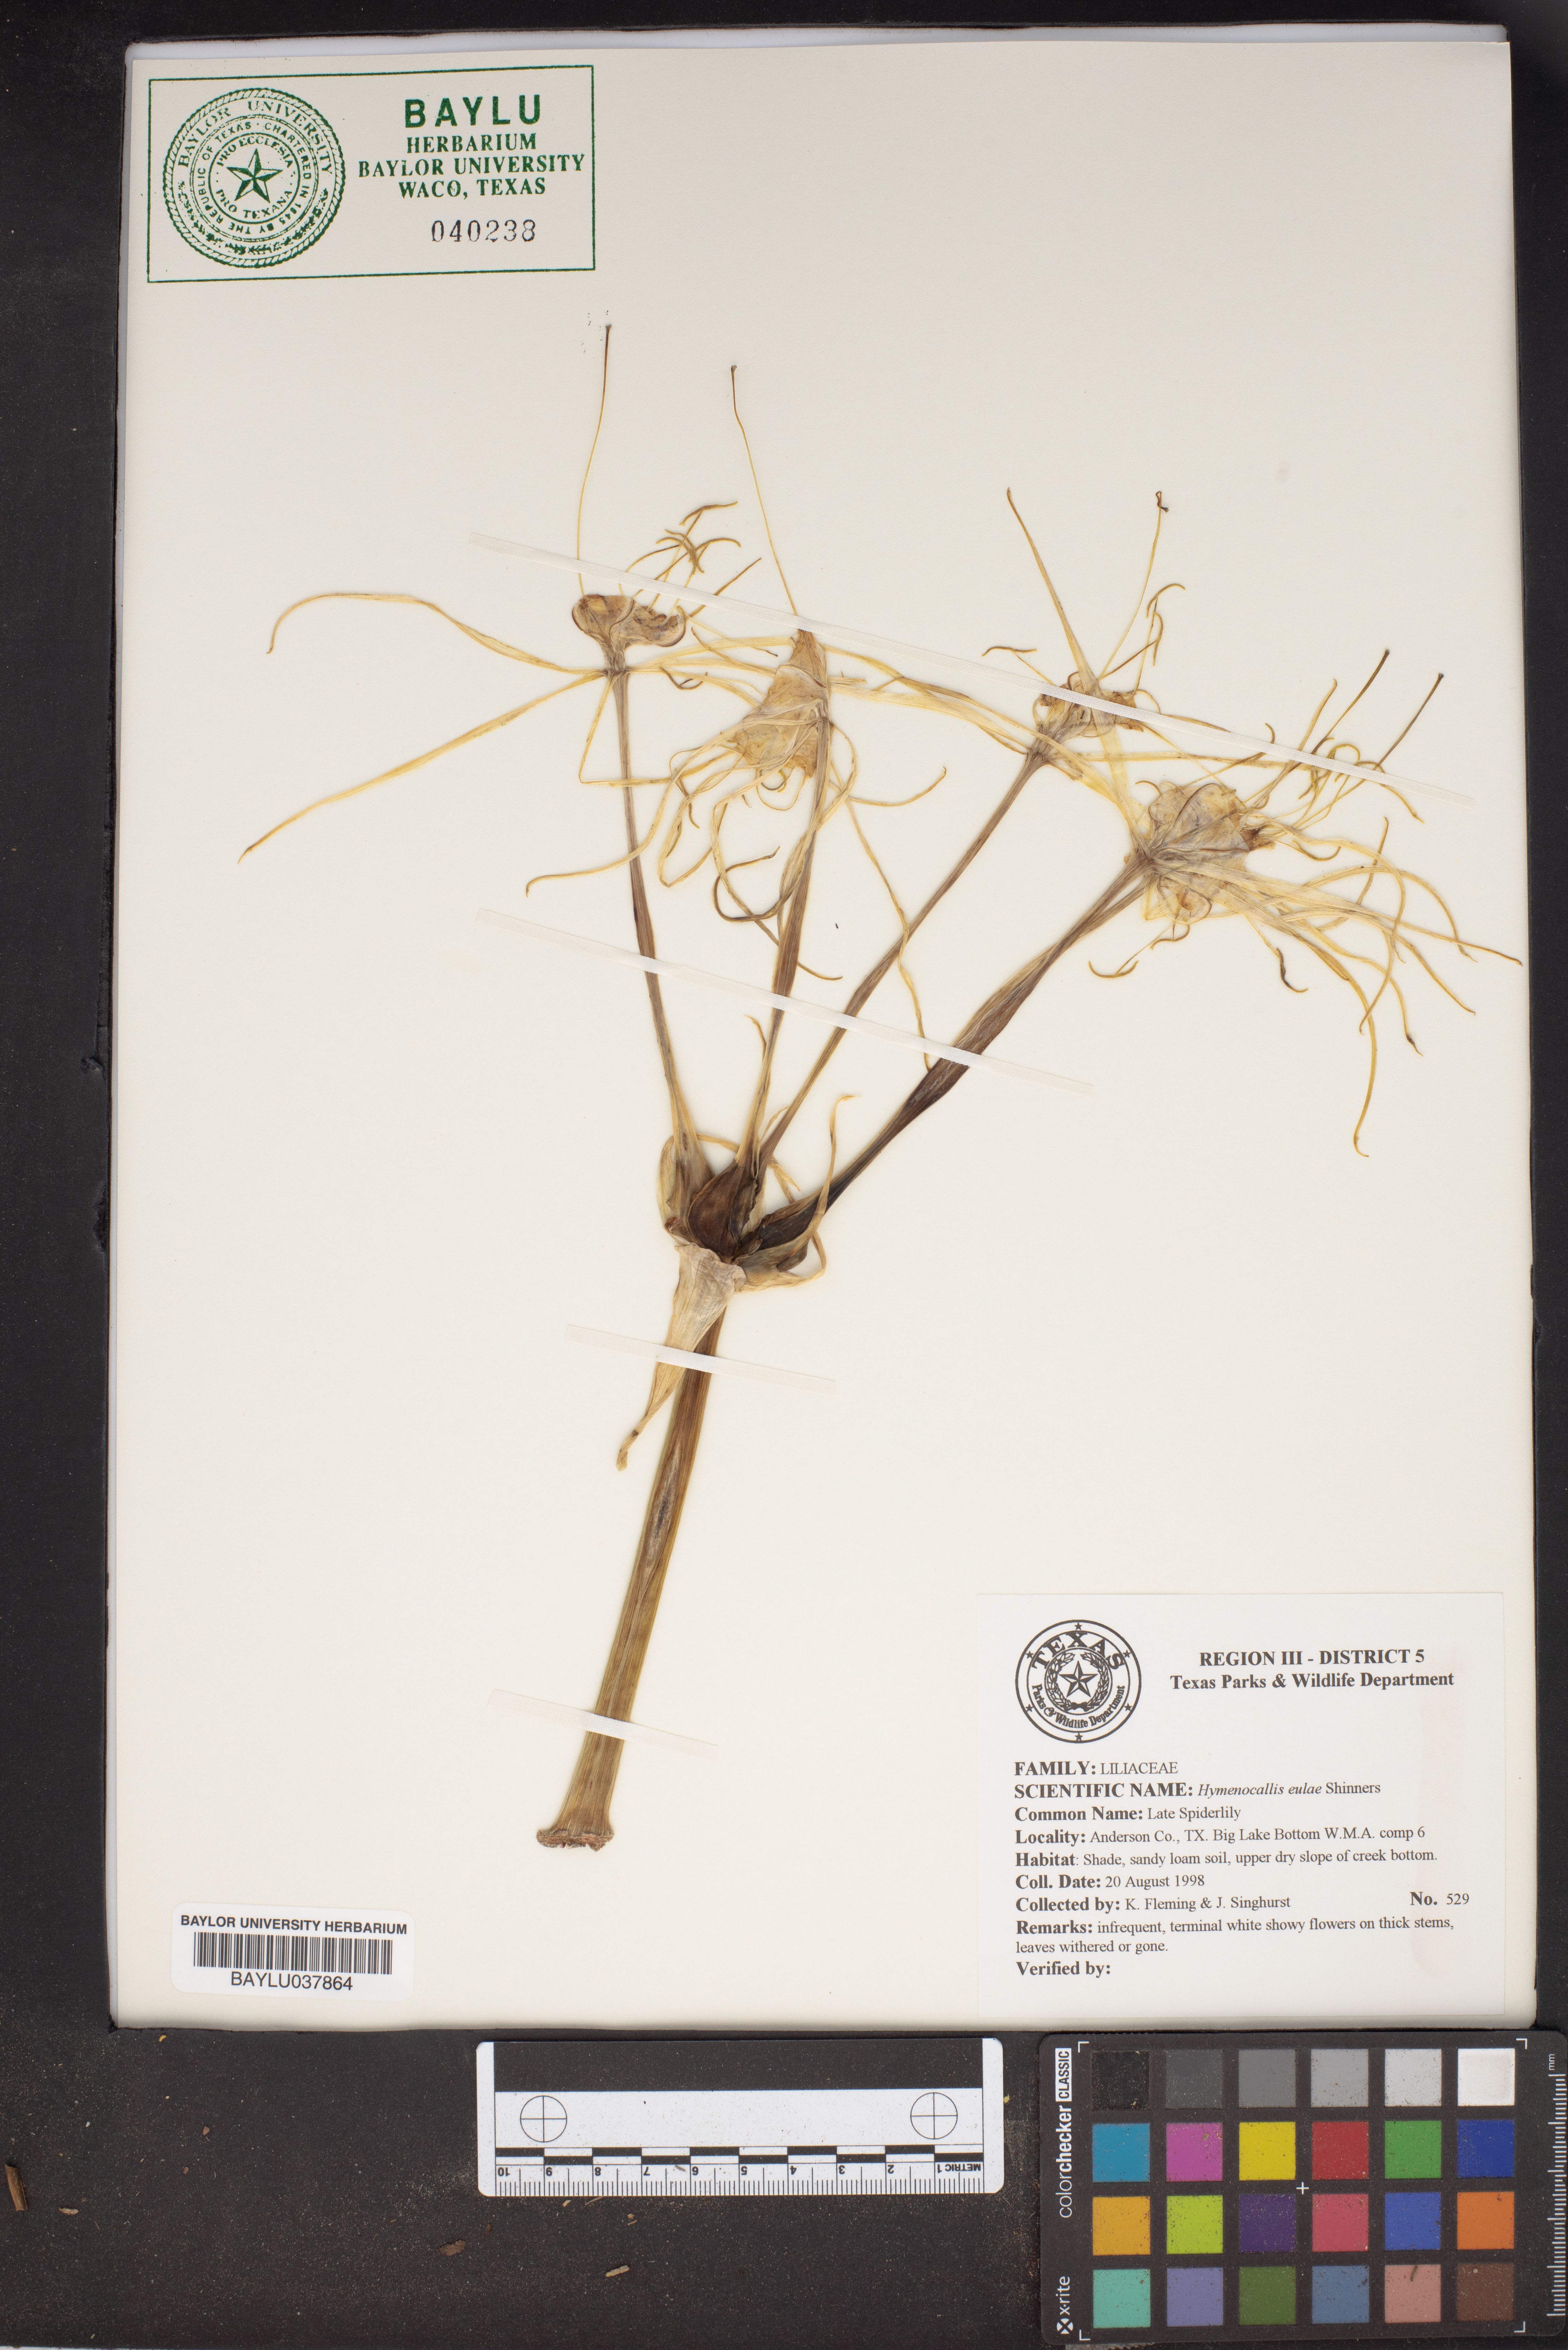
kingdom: Plantae
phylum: Tracheophyta
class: Liliopsida
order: Asparagales
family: Amaryllidaceae
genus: Hymenocallis
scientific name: Hymenocallis occidentalis
